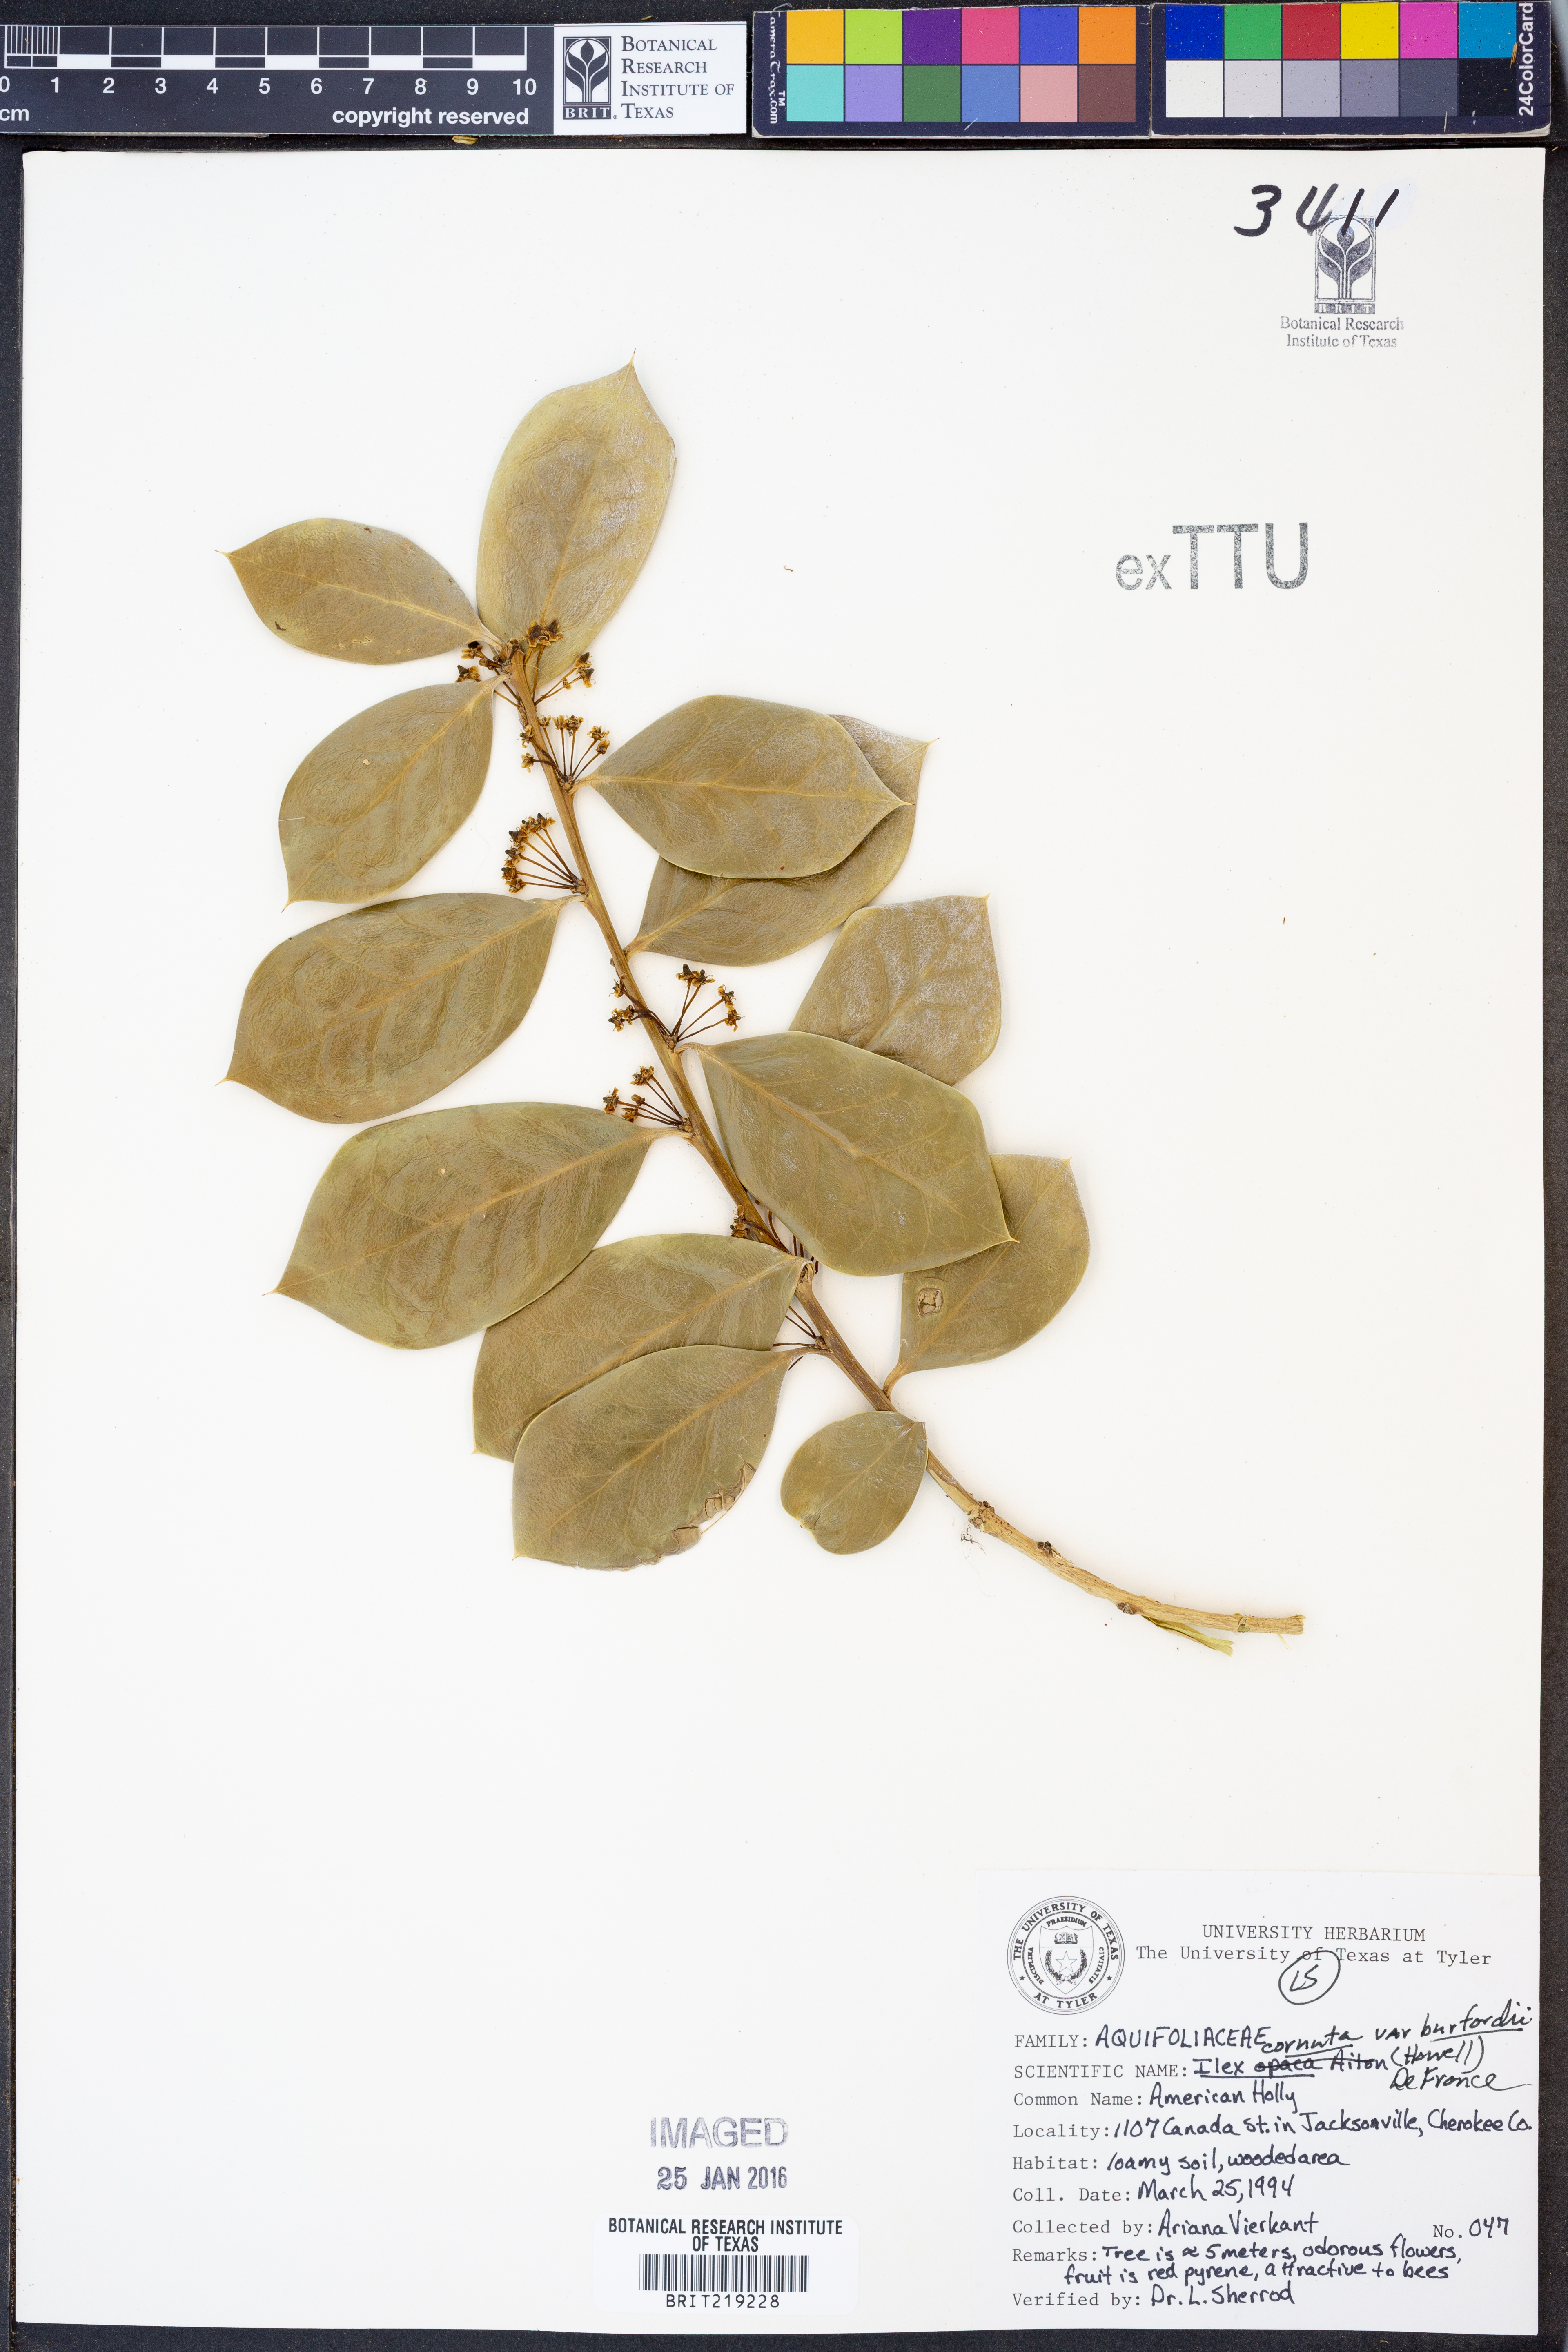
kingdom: Plantae
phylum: Tracheophyta
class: Magnoliopsida
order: Aquifoliales
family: Aquifoliaceae
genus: Ilex
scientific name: Ilex crenata
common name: Japanese holly
